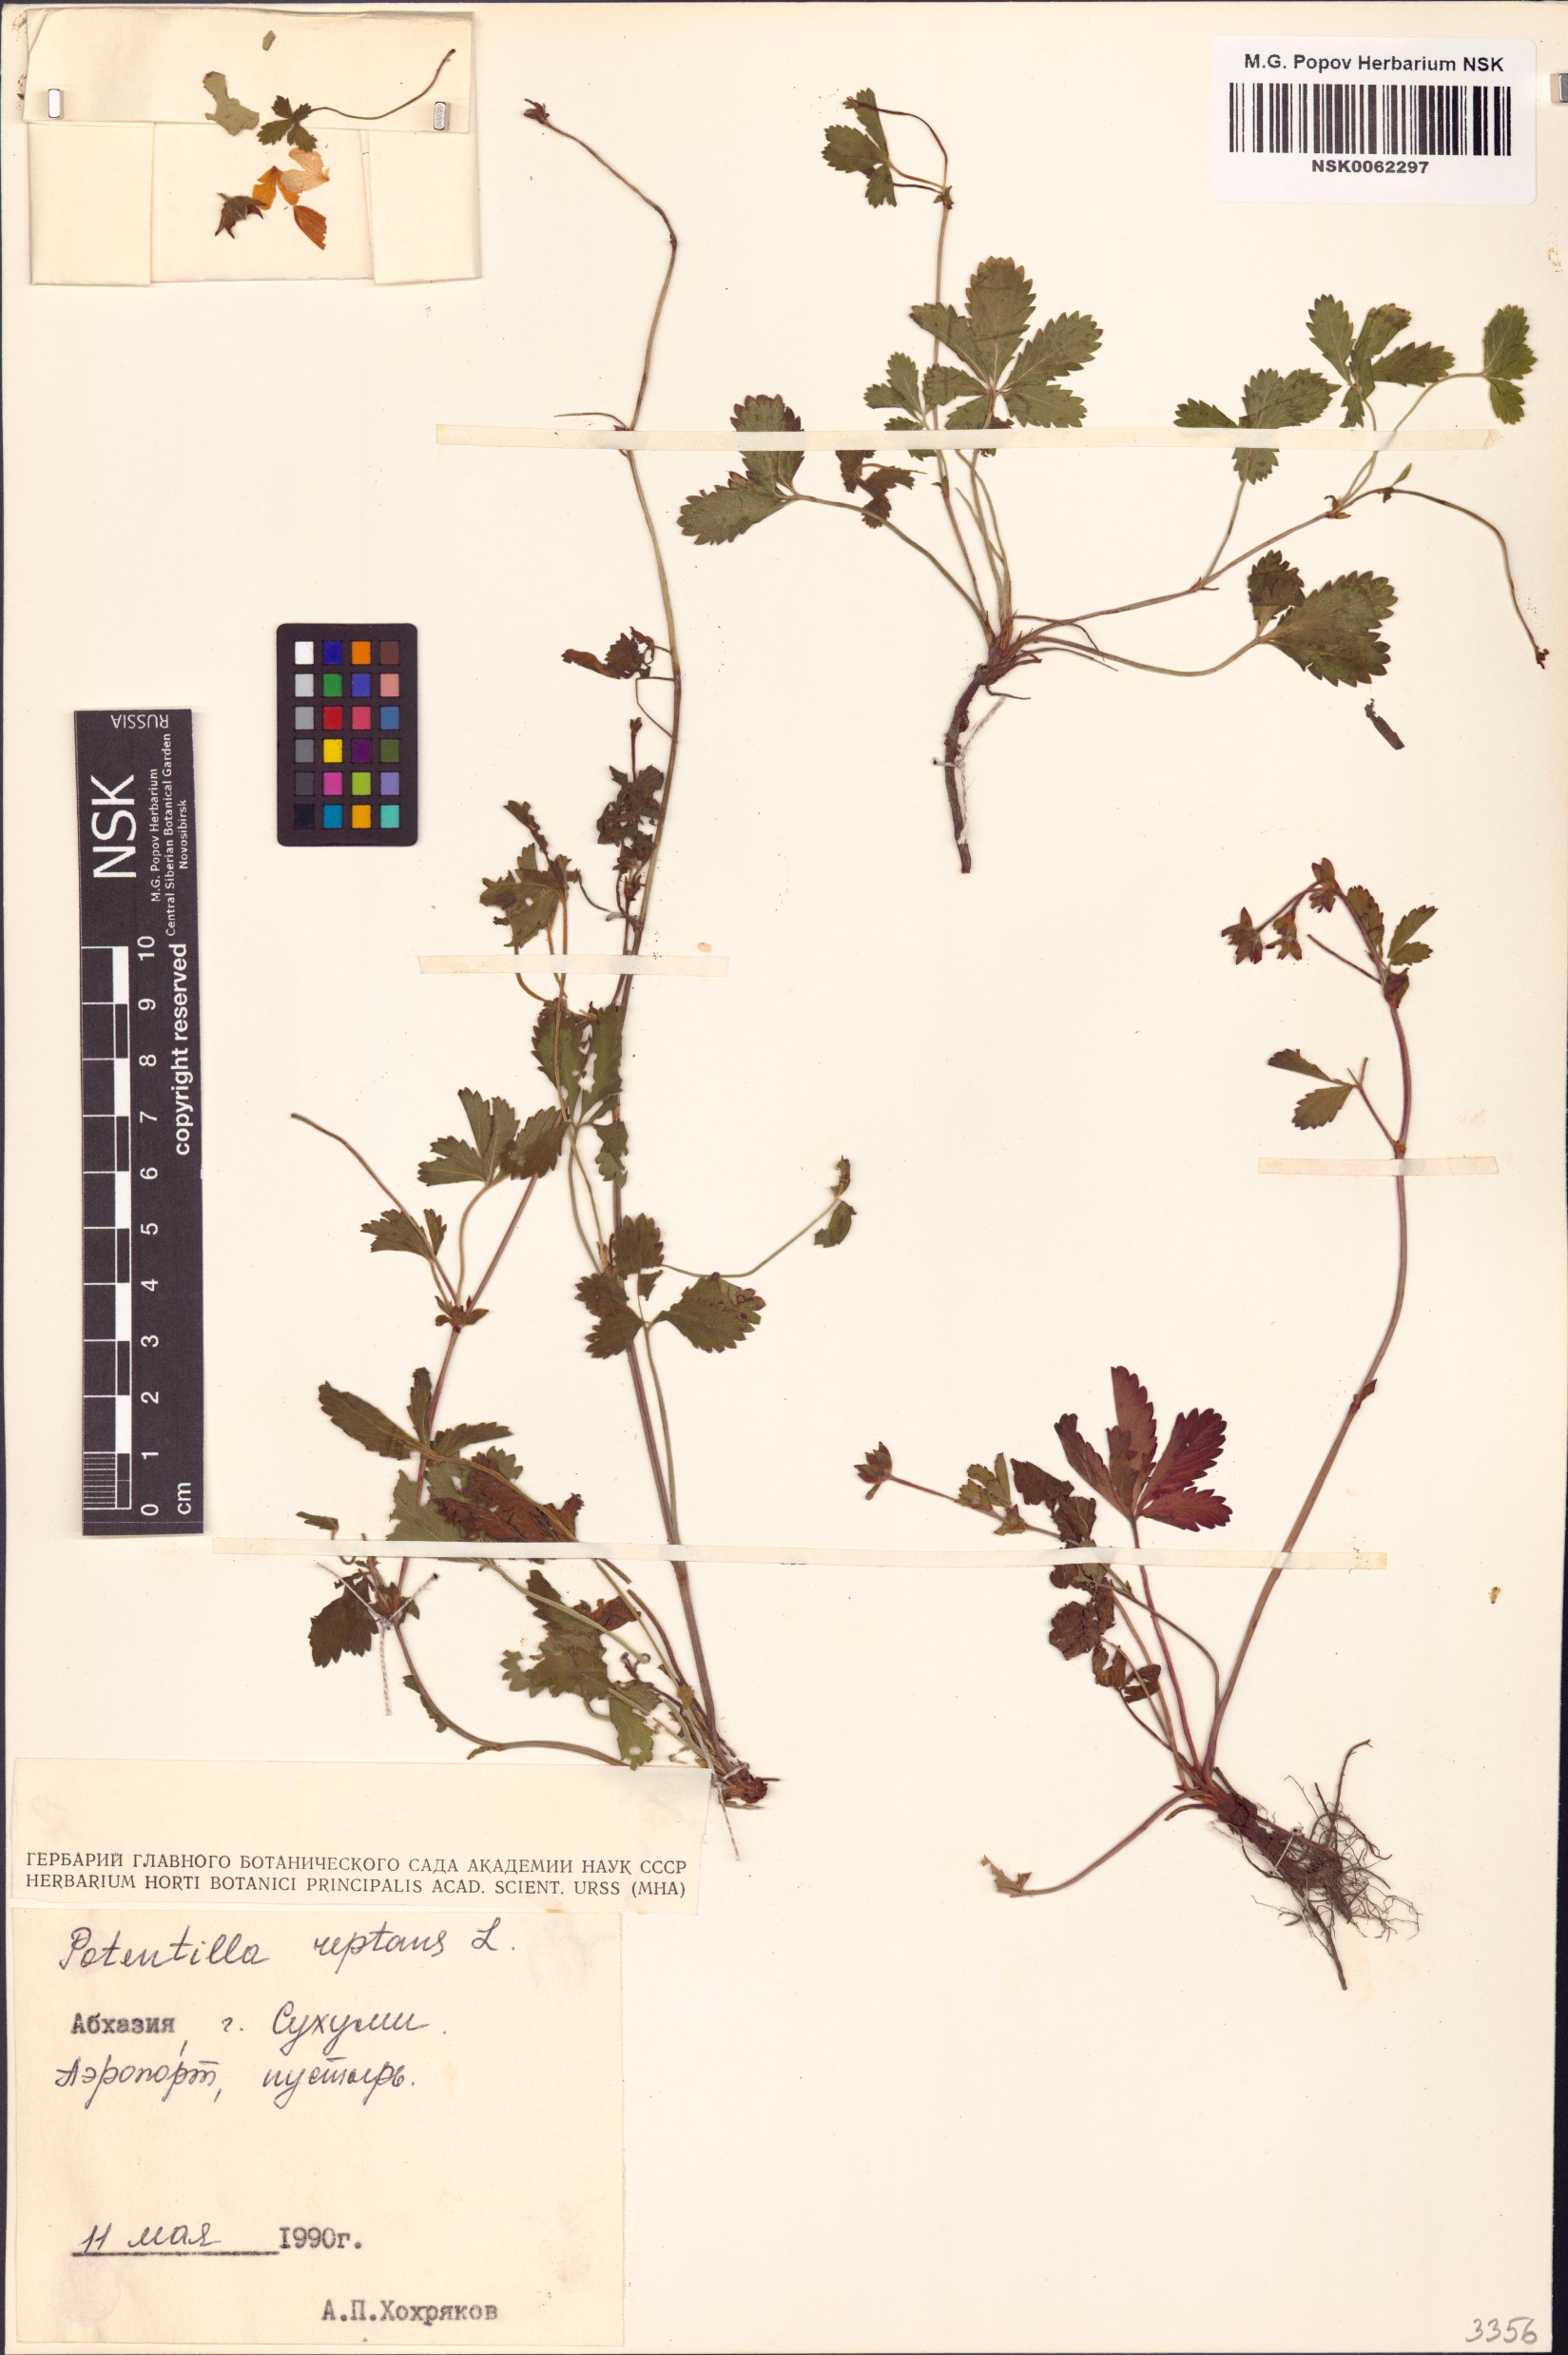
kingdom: Plantae
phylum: Tracheophyta
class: Magnoliopsida
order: Rosales
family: Rosaceae
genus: Potentilla
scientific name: Potentilla reptans
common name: Creeping cinquefoil
